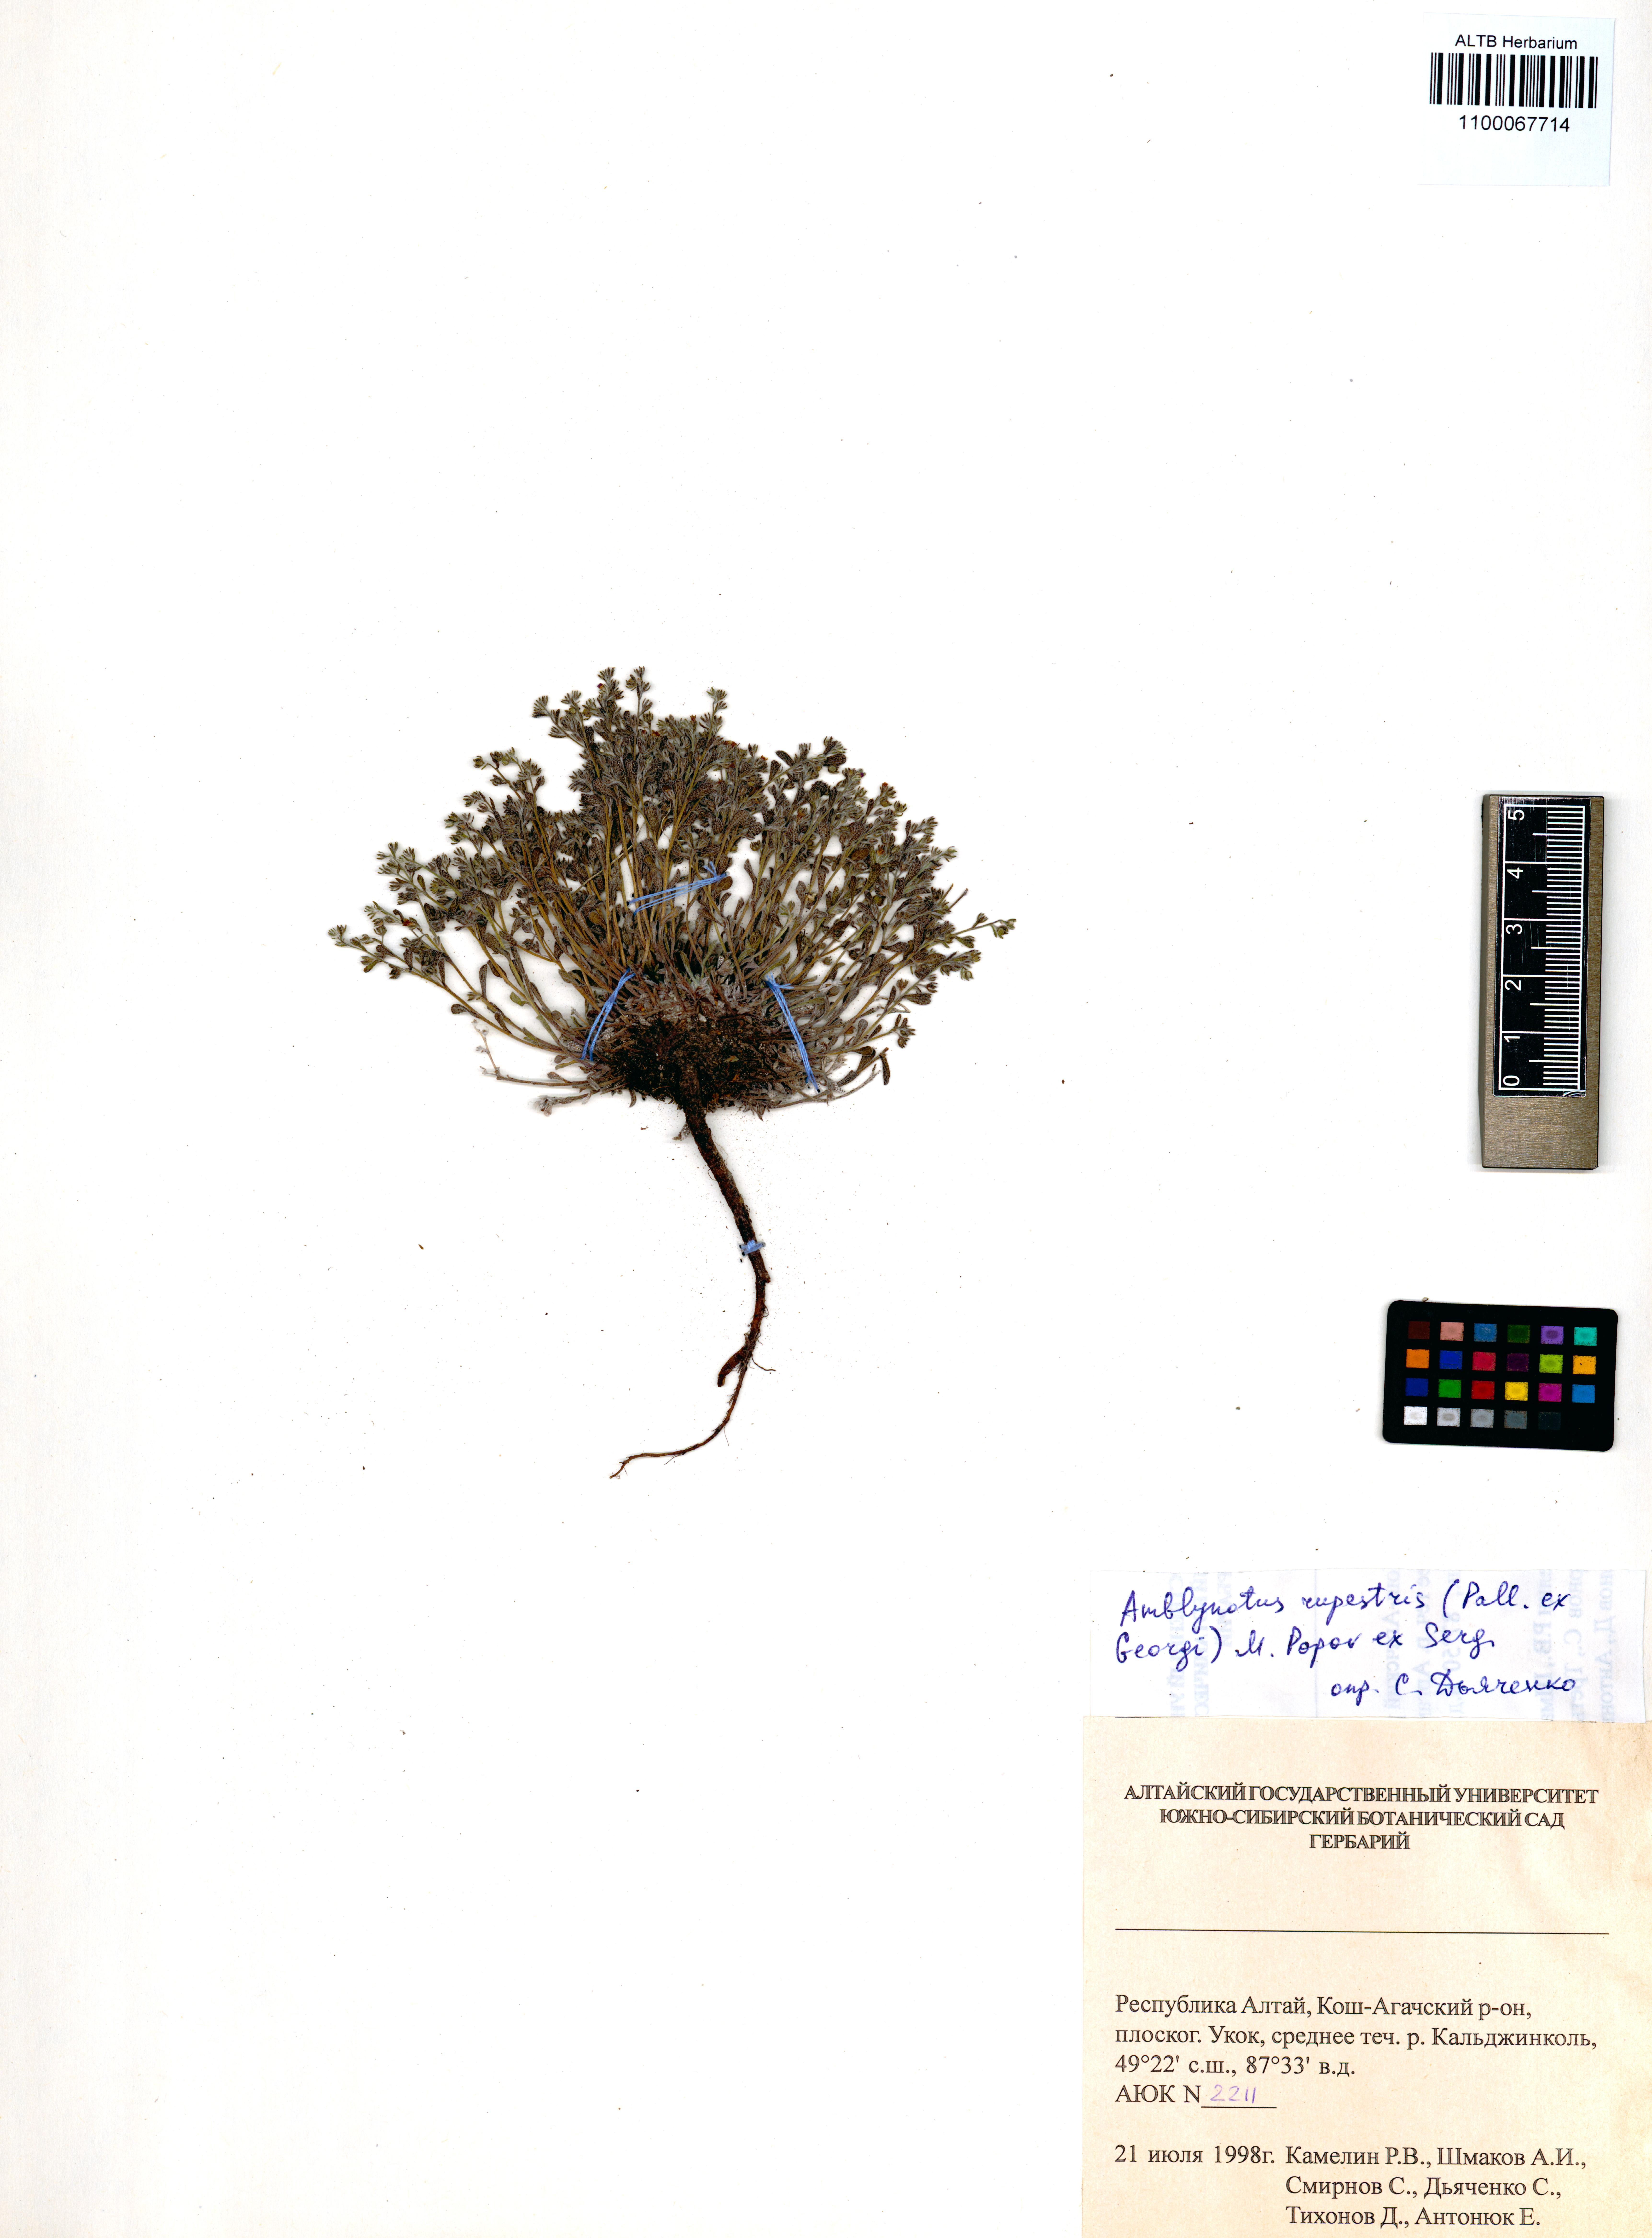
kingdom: Plantae
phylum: Tracheophyta
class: Magnoliopsida
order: Boraginales
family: Boraginaceae
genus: Eritrichium
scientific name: Eritrichium rupestre
